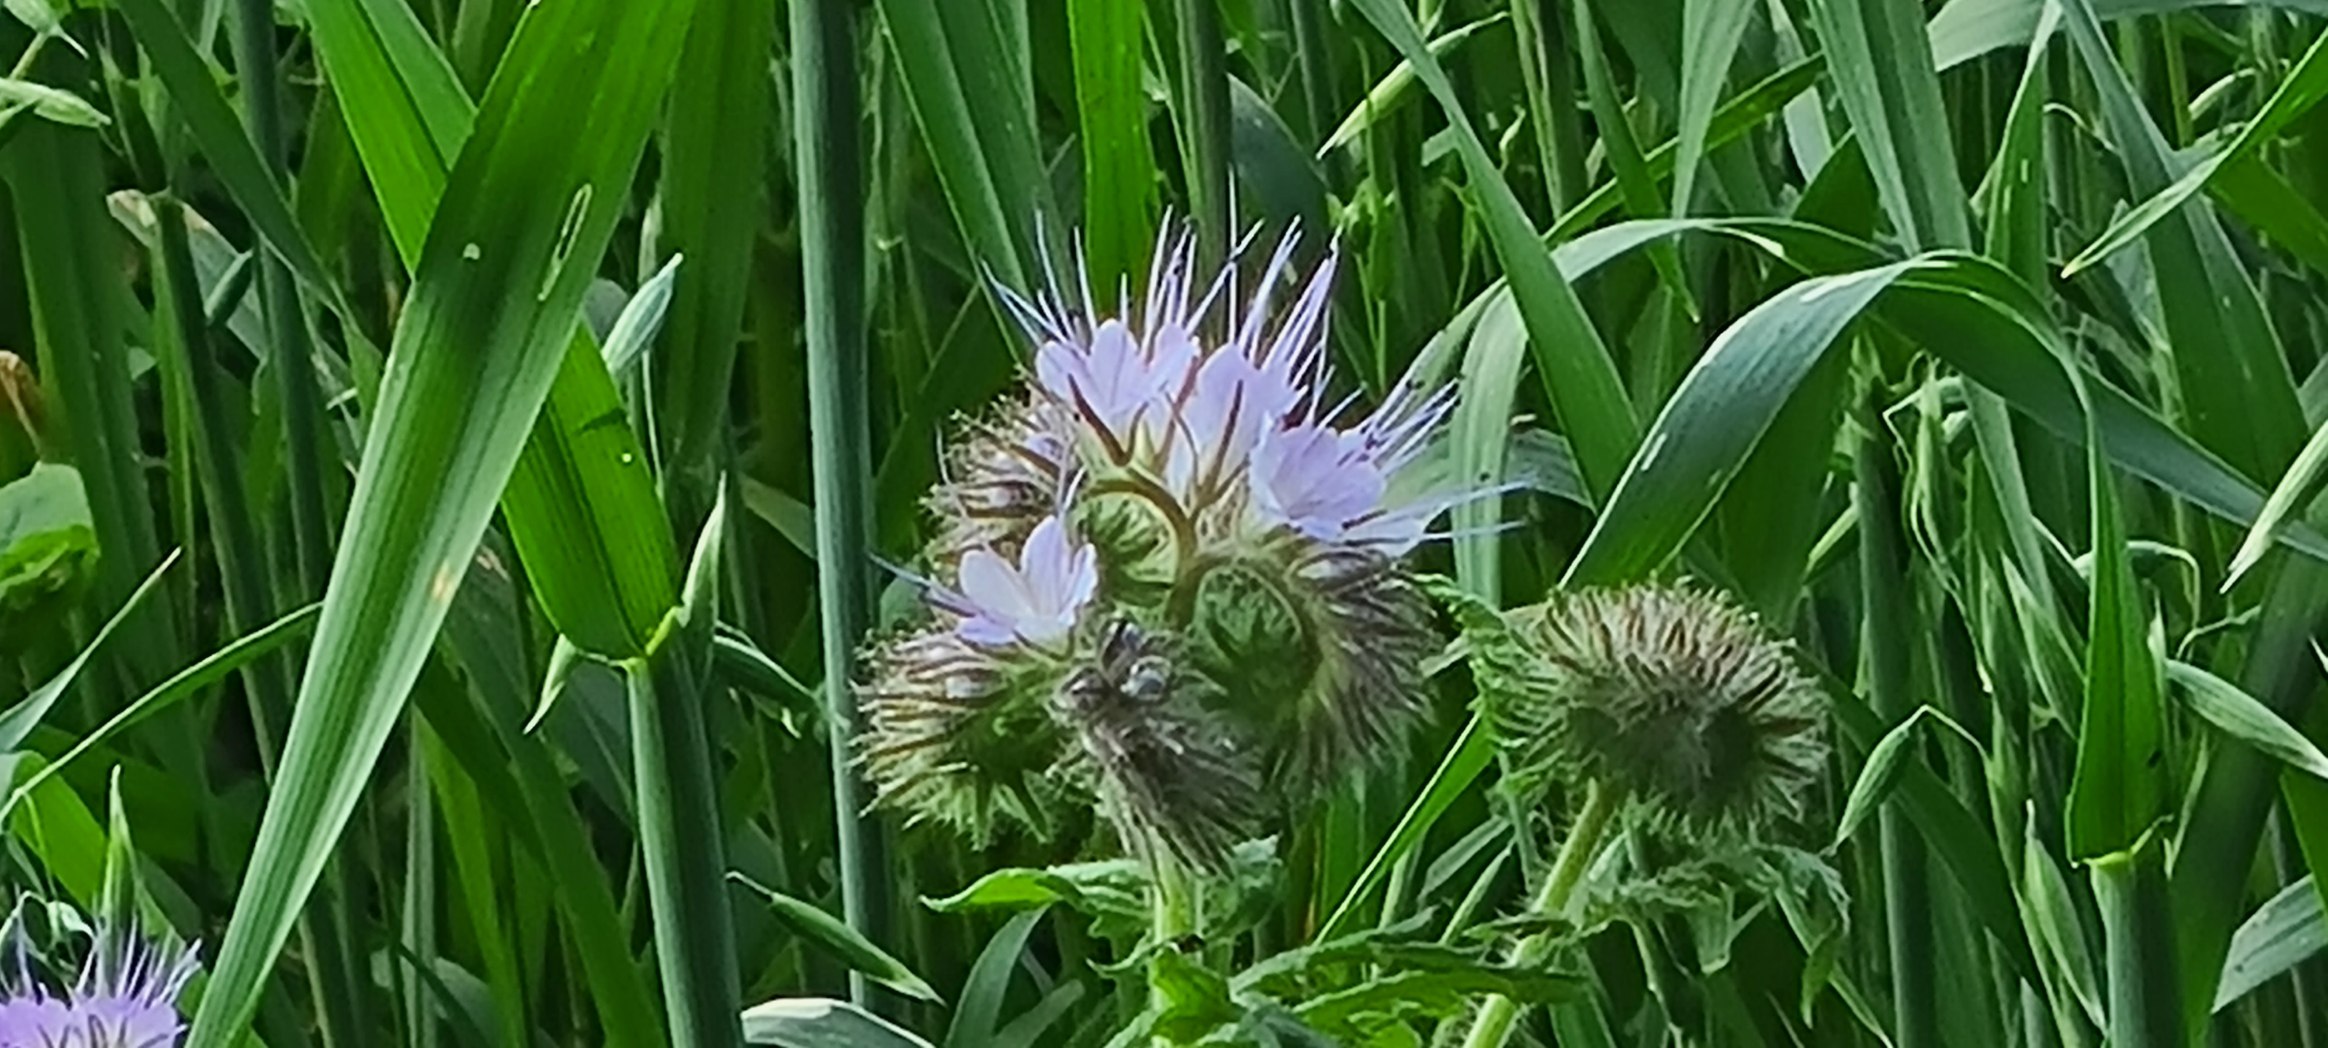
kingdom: Plantae
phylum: Tracheophyta
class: Magnoliopsida
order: Boraginales
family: Hydrophyllaceae
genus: Phacelia
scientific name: Phacelia tanacetifolia
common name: Honningurt
